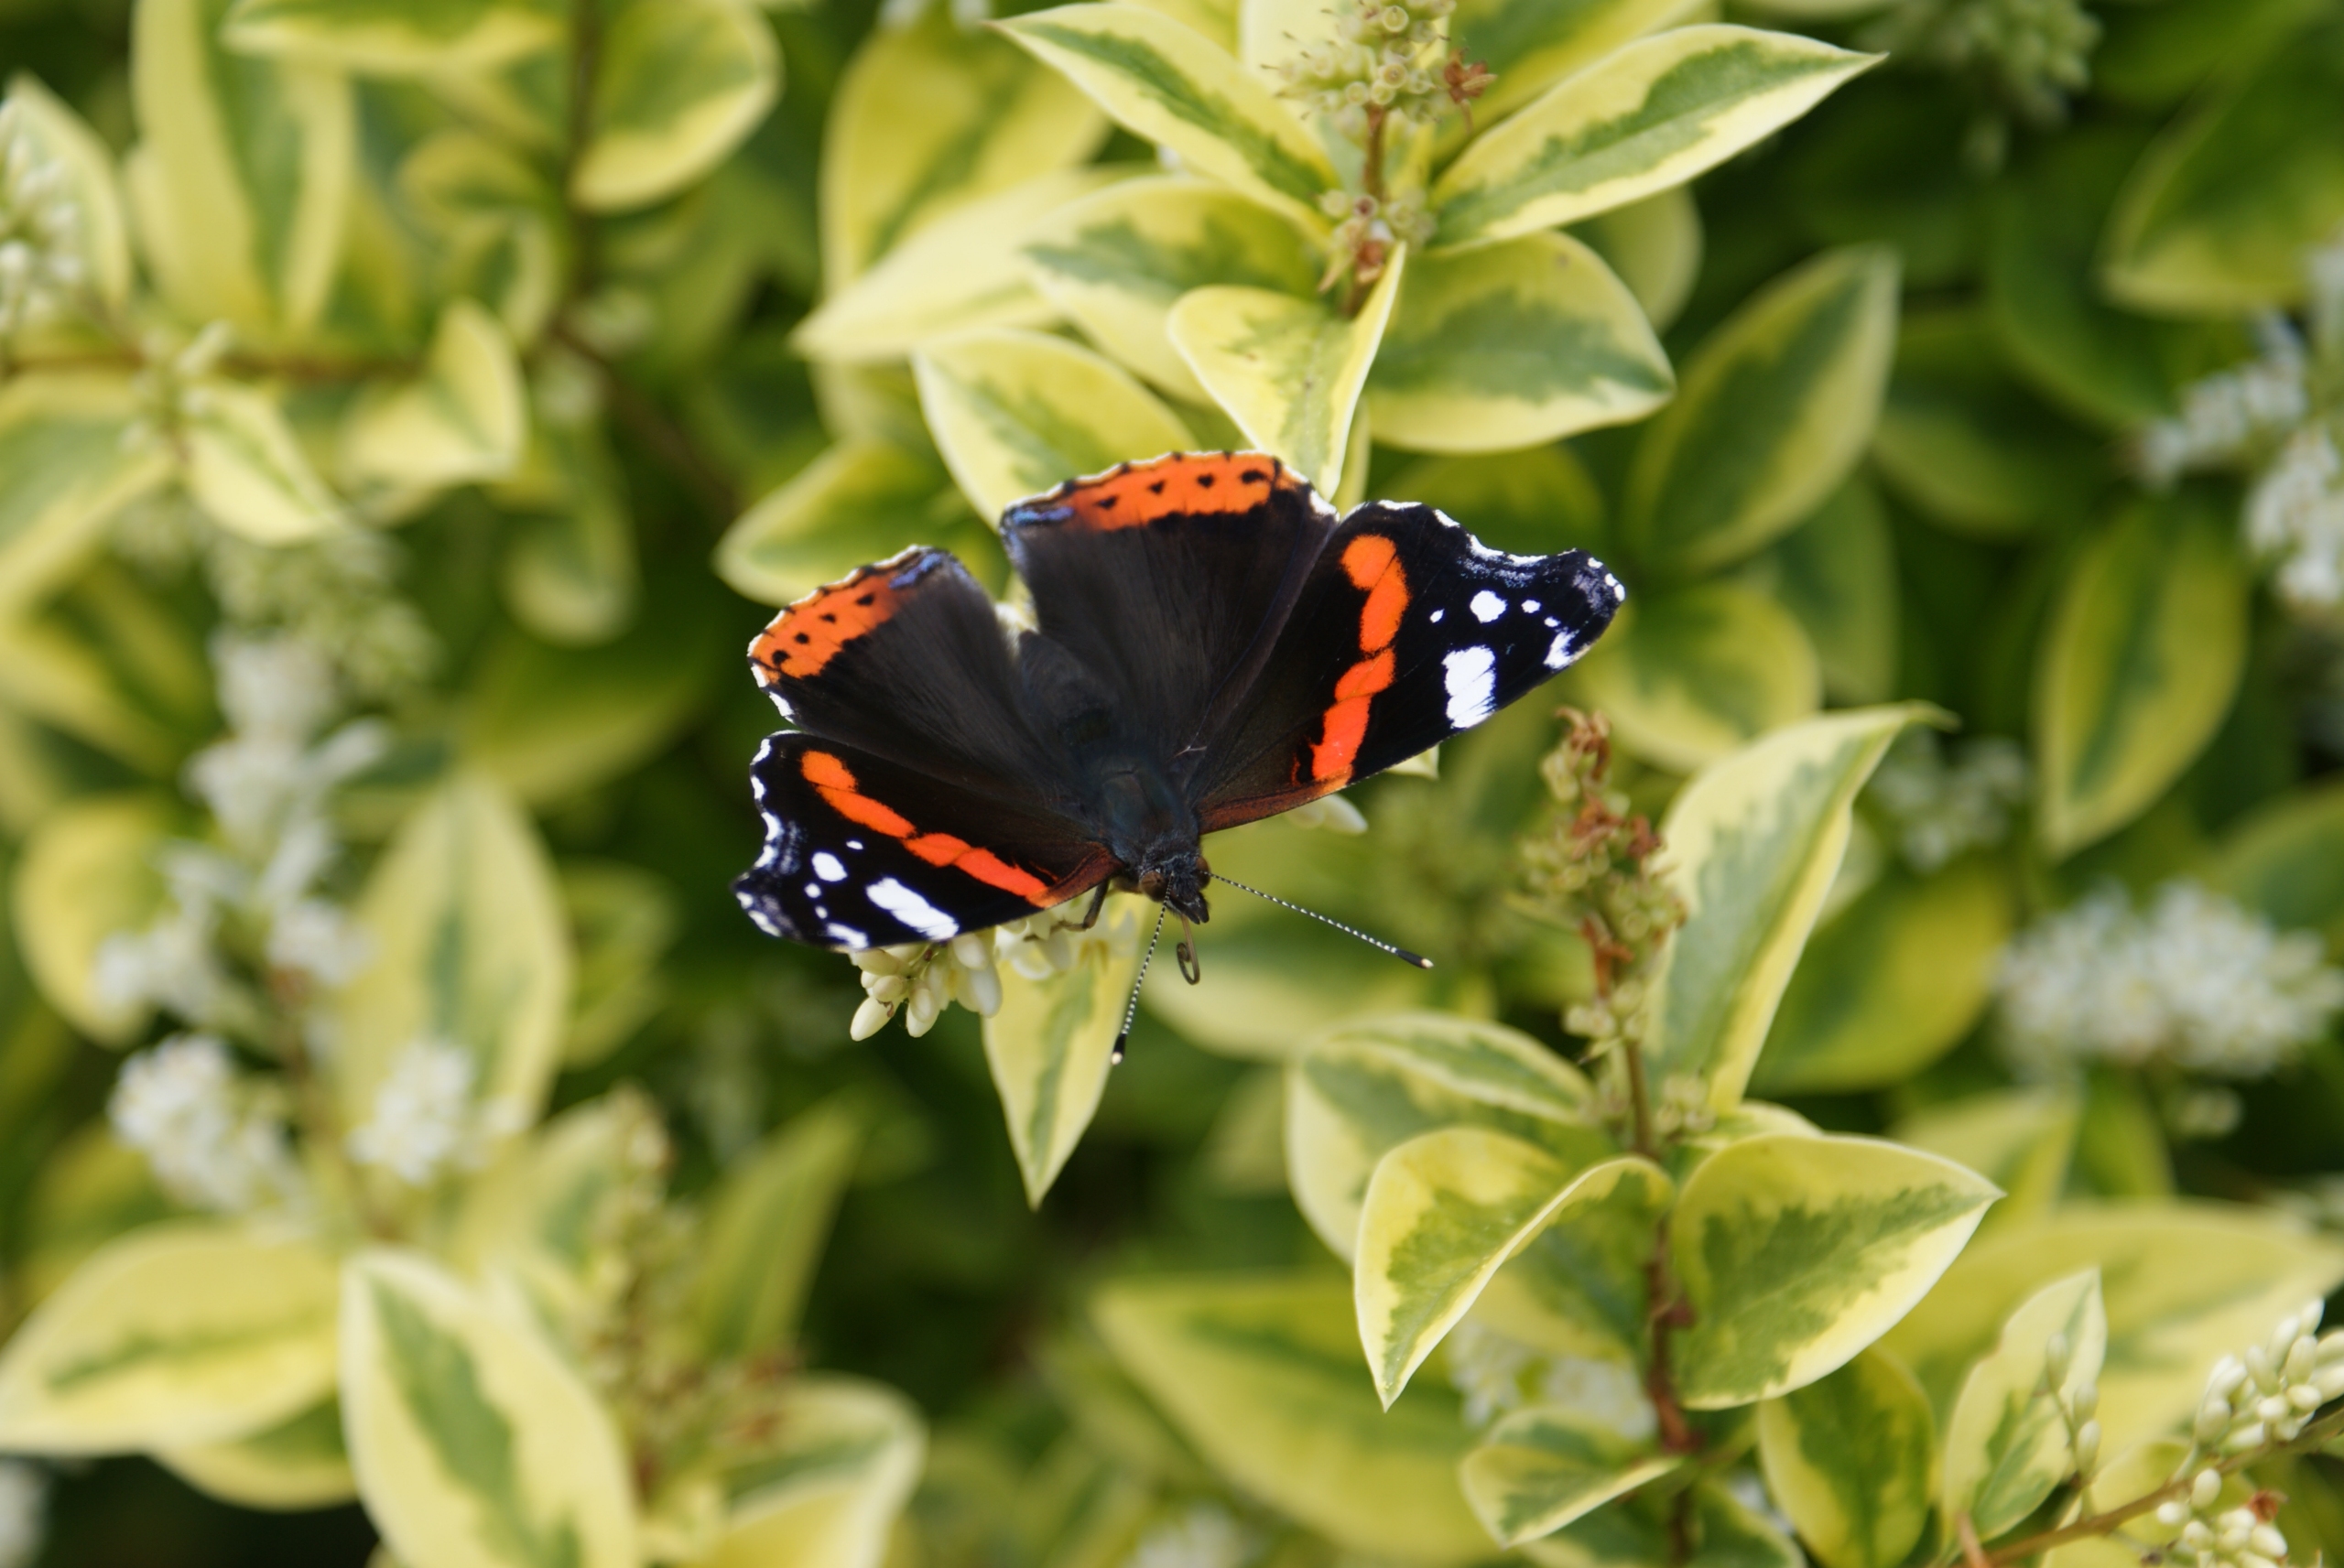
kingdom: Animalia
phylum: Arthropoda
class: Insecta
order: Lepidoptera
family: Nymphalidae
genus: Vanessa
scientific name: Vanessa atalanta
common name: Admiral
